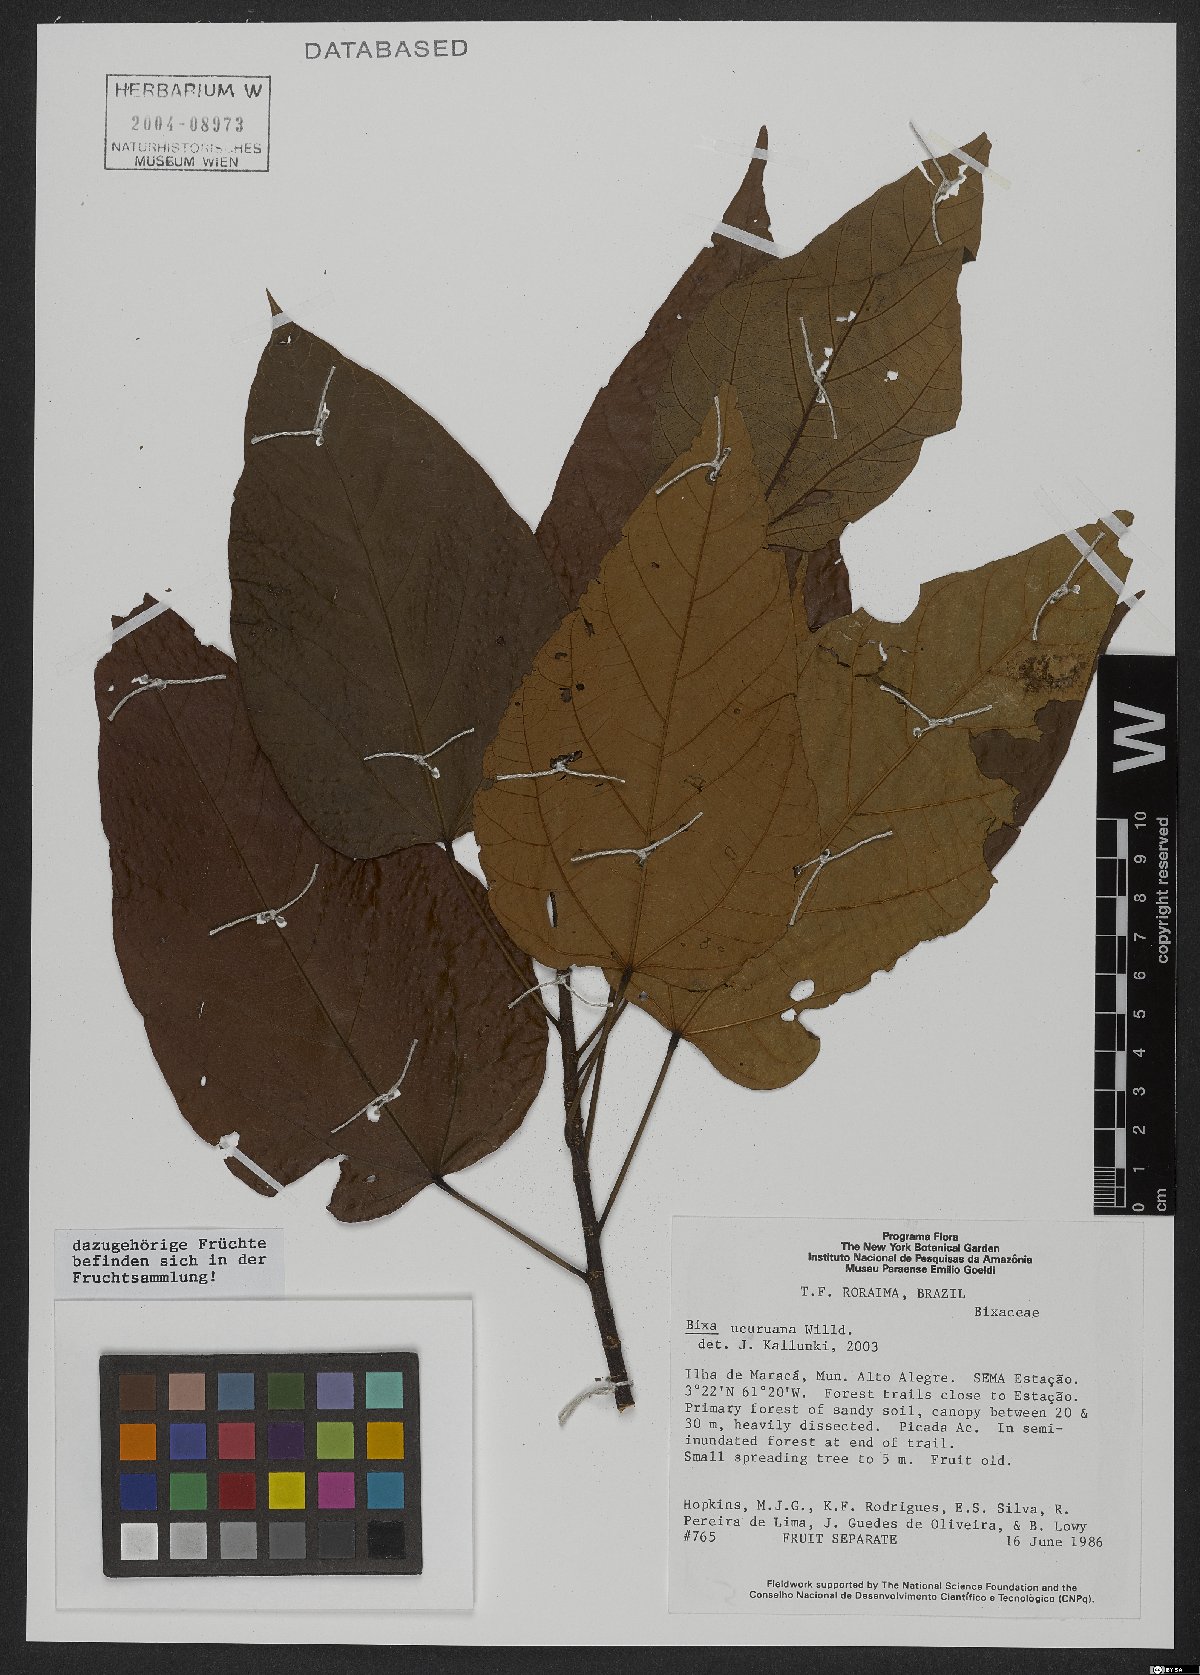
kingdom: Plantae
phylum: Tracheophyta
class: Magnoliopsida
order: Malvales
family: Bixaceae
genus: Bixa
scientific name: Bixa urucurana
